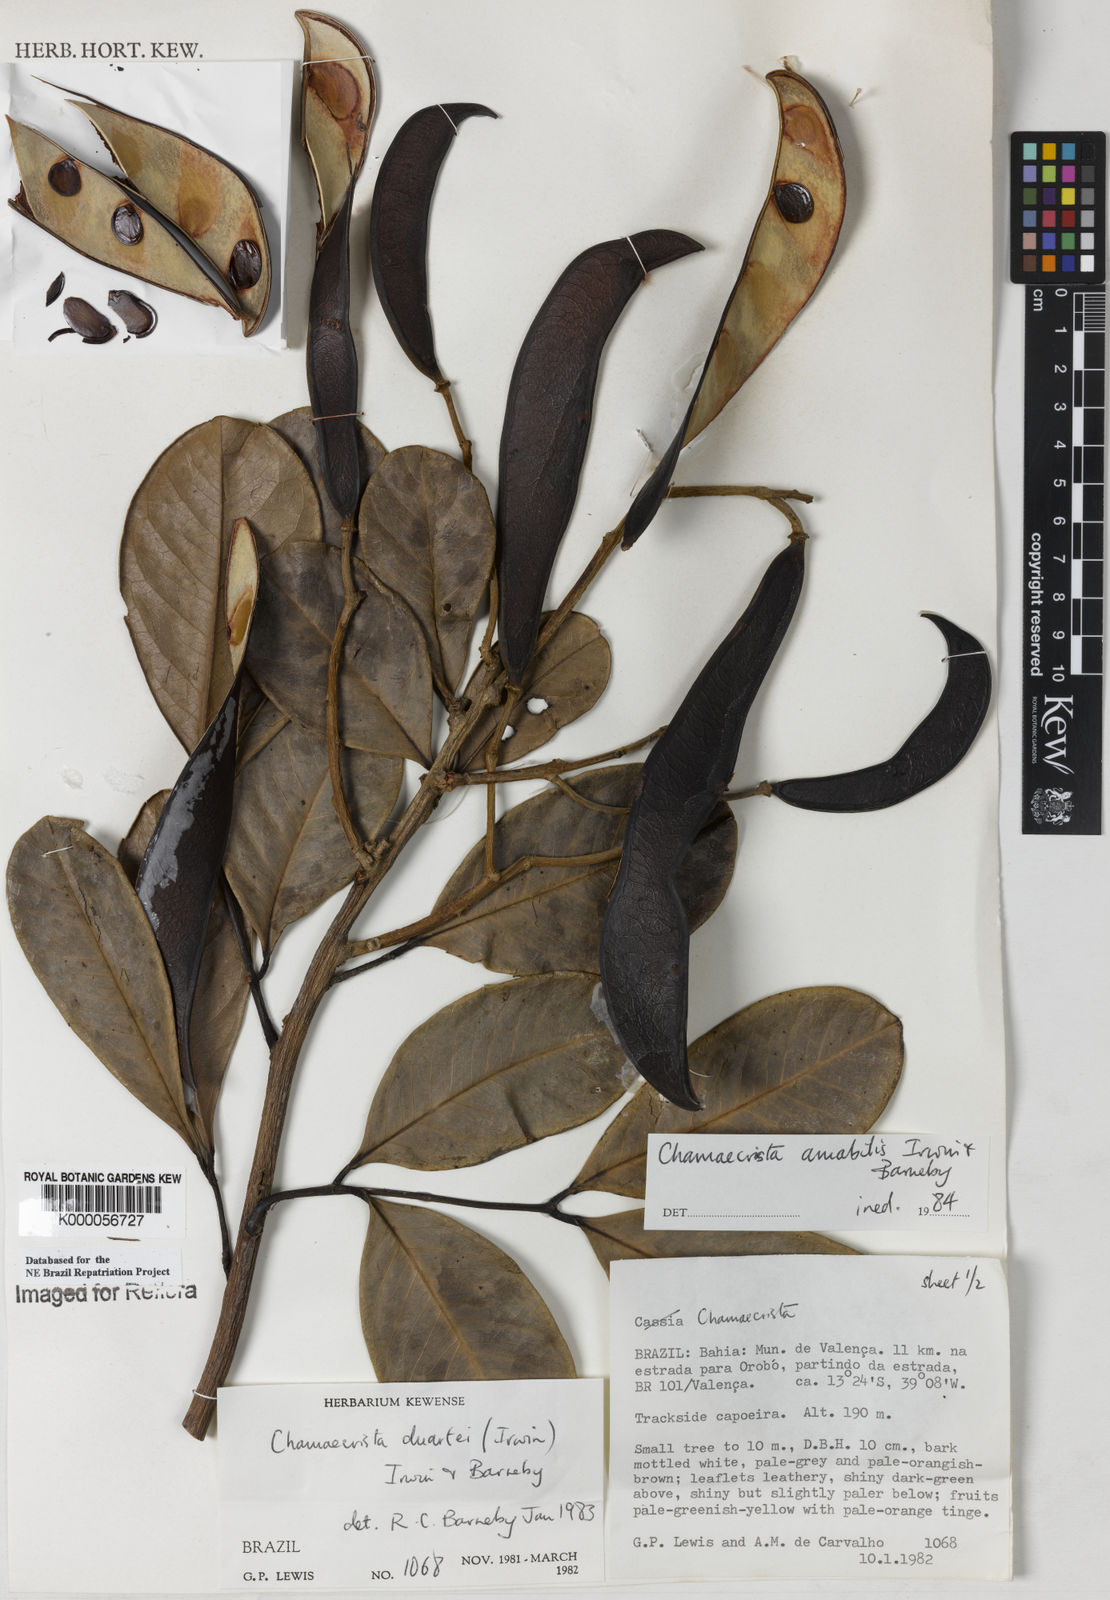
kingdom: Plantae
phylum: Tracheophyta
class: Magnoliopsida
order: Fabales
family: Fabaceae
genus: Chamaecrista
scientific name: Chamaecrista amabilis
